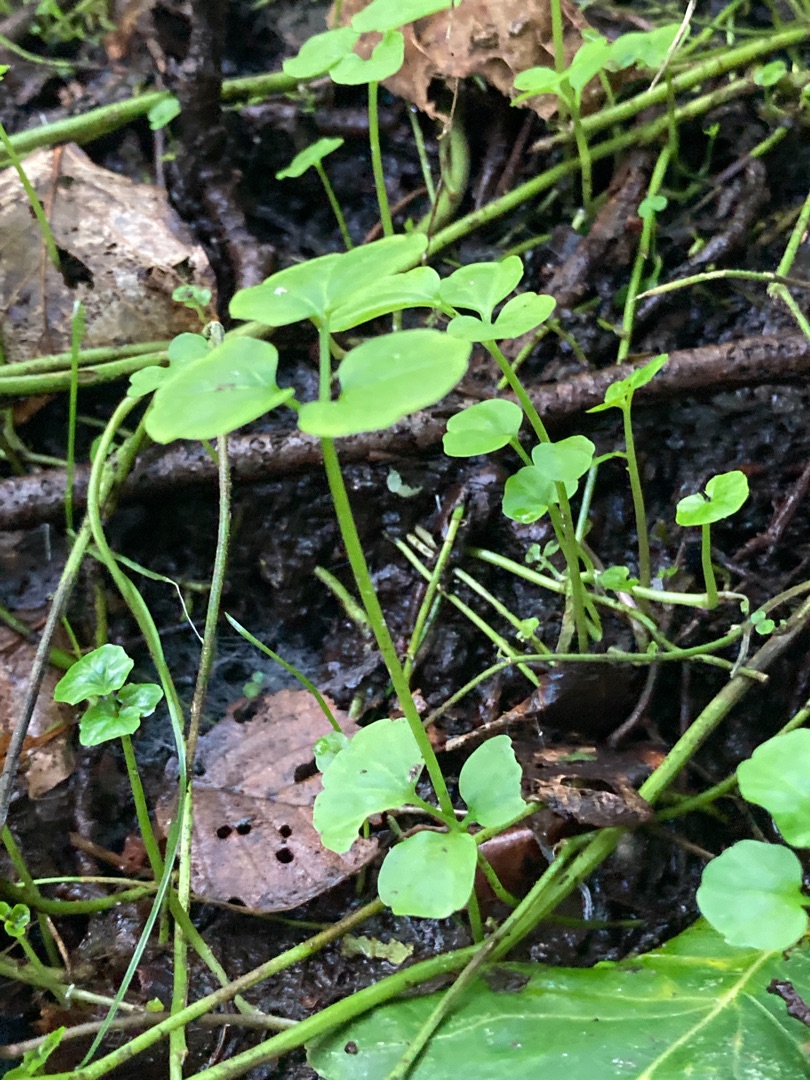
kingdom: Plantae
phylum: Tracheophyta
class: Magnoliopsida
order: Brassicales
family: Brassicaceae
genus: Cardamine
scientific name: Cardamine amara
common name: Vandkarse
